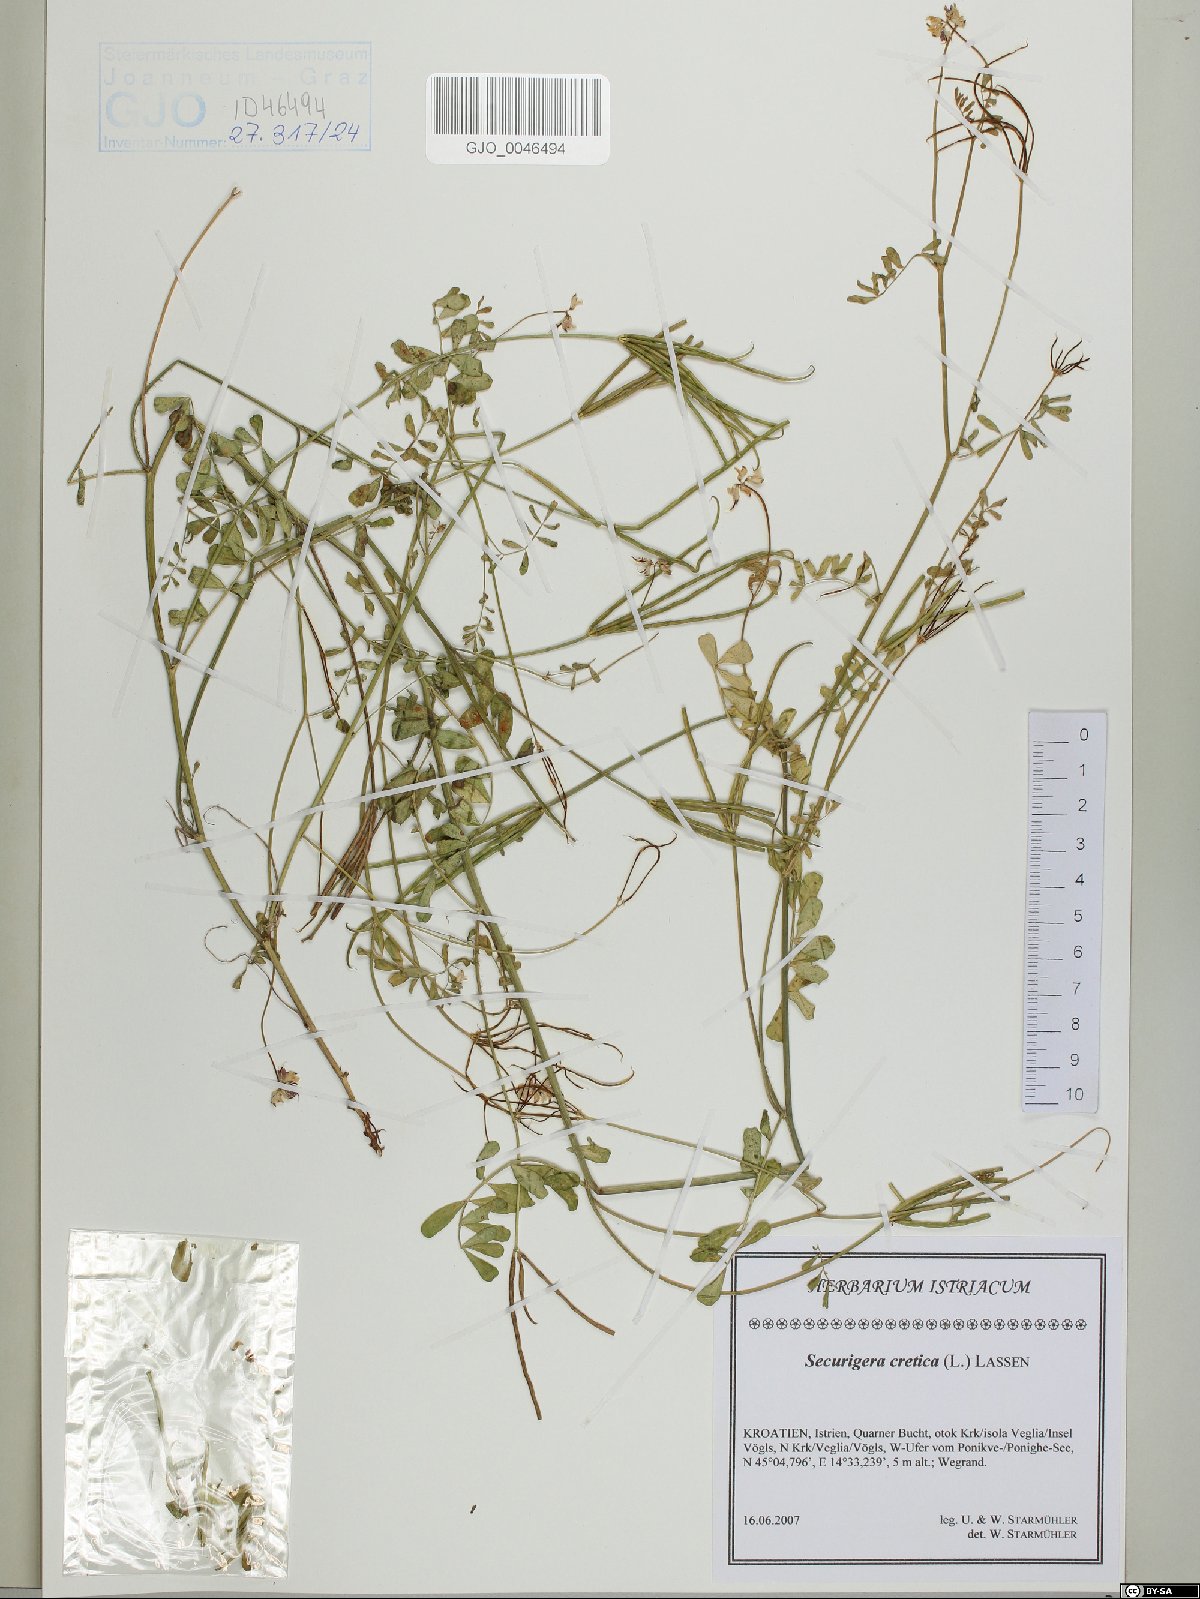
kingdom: Plantae
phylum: Tracheophyta
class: Magnoliopsida
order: Fabales
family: Fabaceae
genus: Coronilla
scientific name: Coronilla cretica
